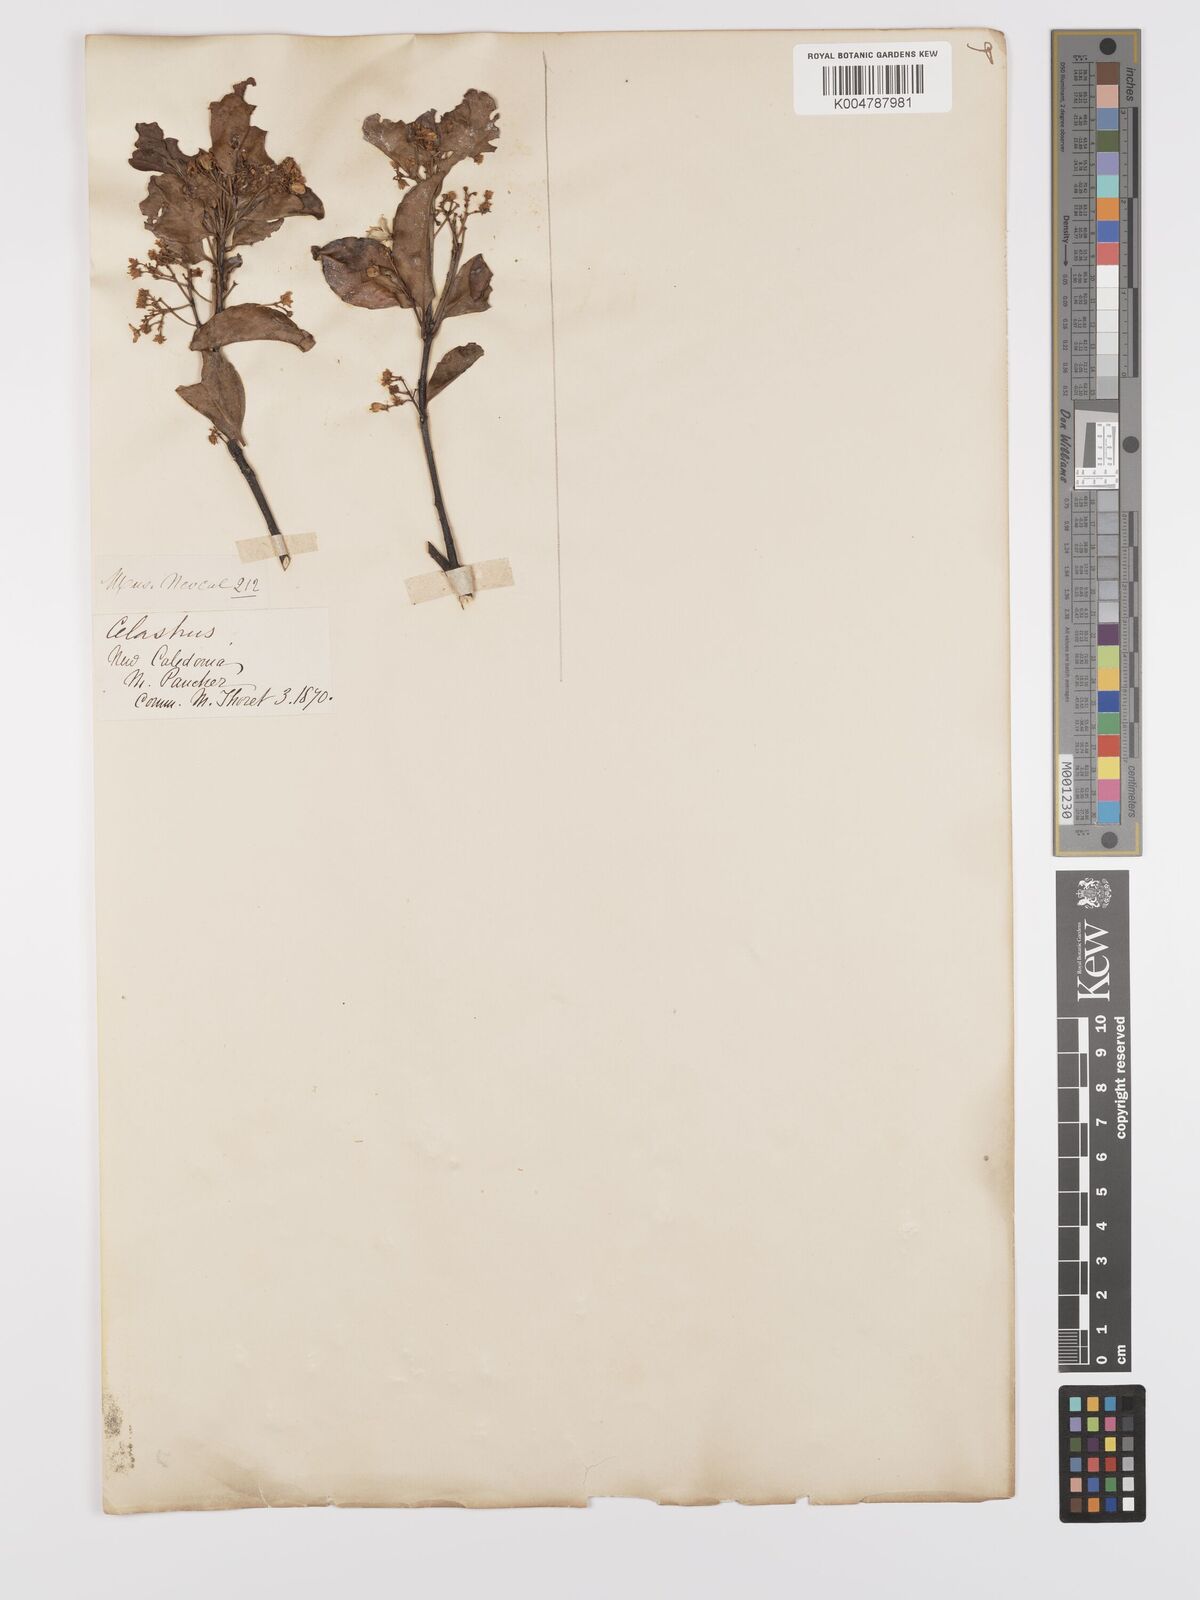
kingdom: Plantae
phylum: Tracheophyta
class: Magnoliopsida
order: Celastrales
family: Celastraceae
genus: Denhamia
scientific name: Denhamia
